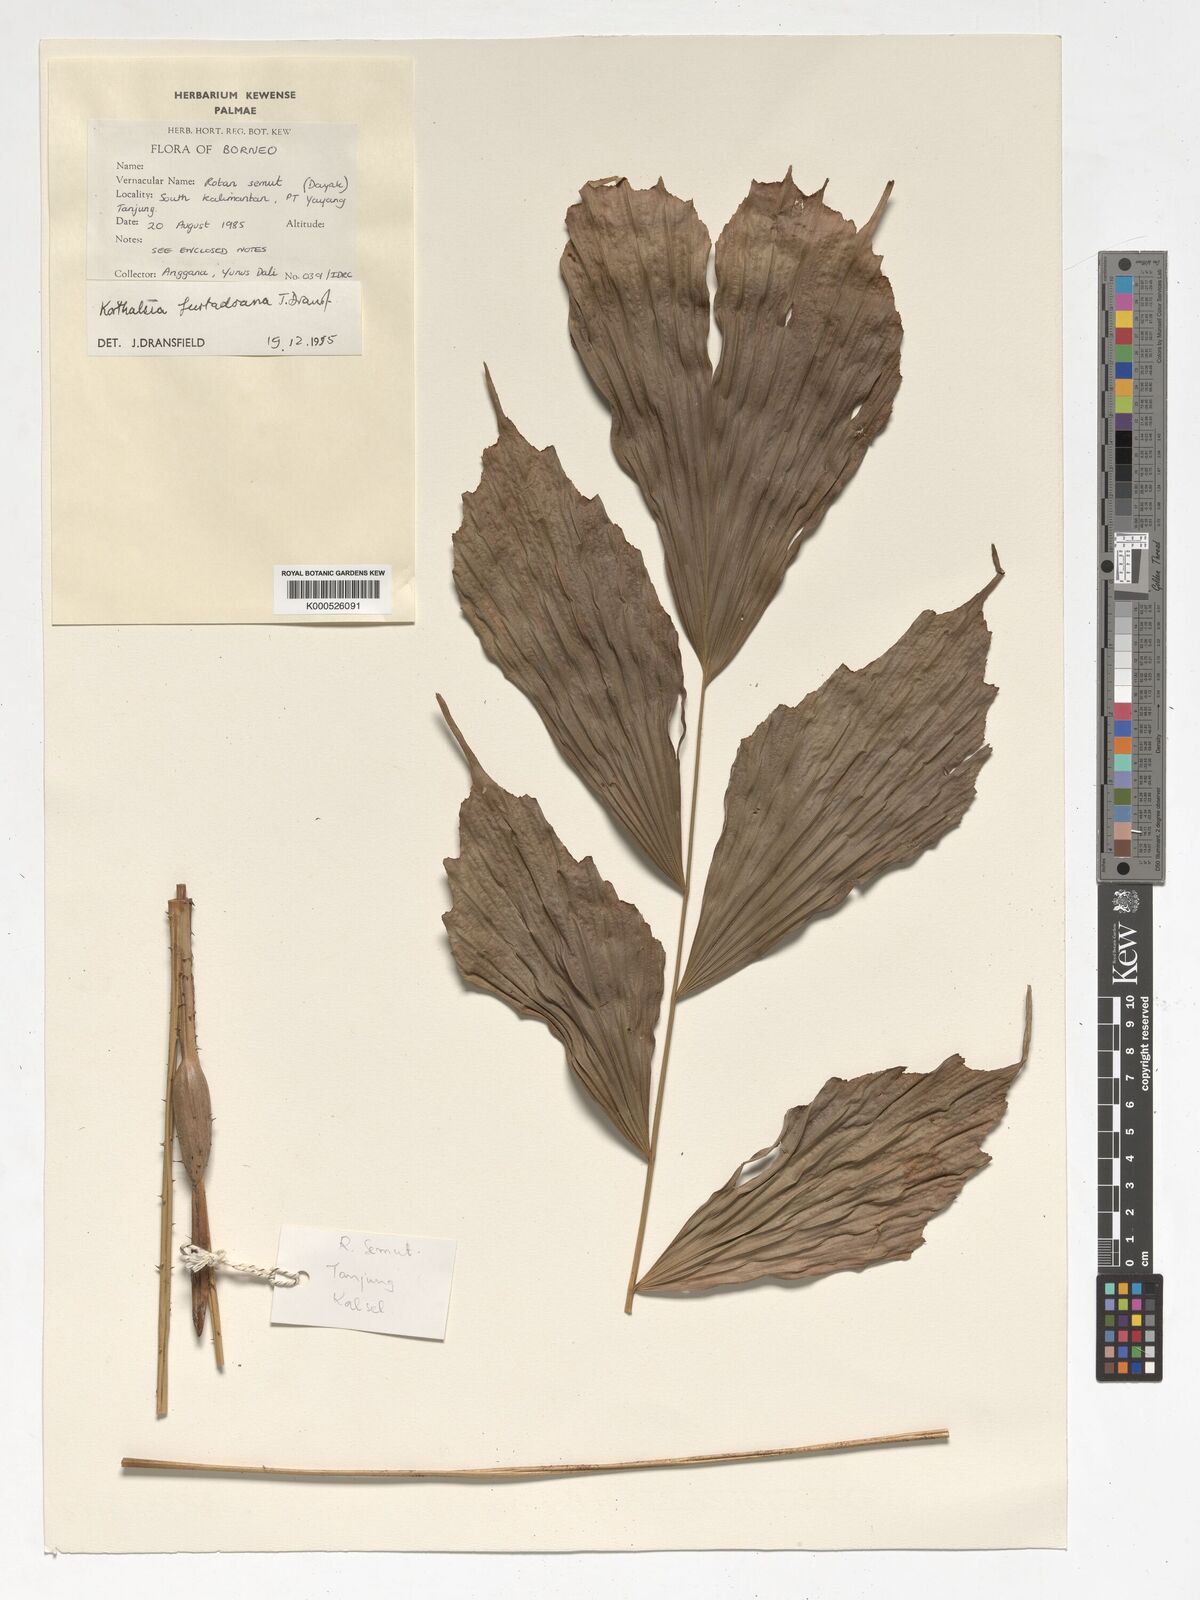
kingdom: Plantae
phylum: Tracheophyta
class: Liliopsida
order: Arecales
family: Arecaceae
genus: Korthalsia
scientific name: Korthalsia furtadoana
